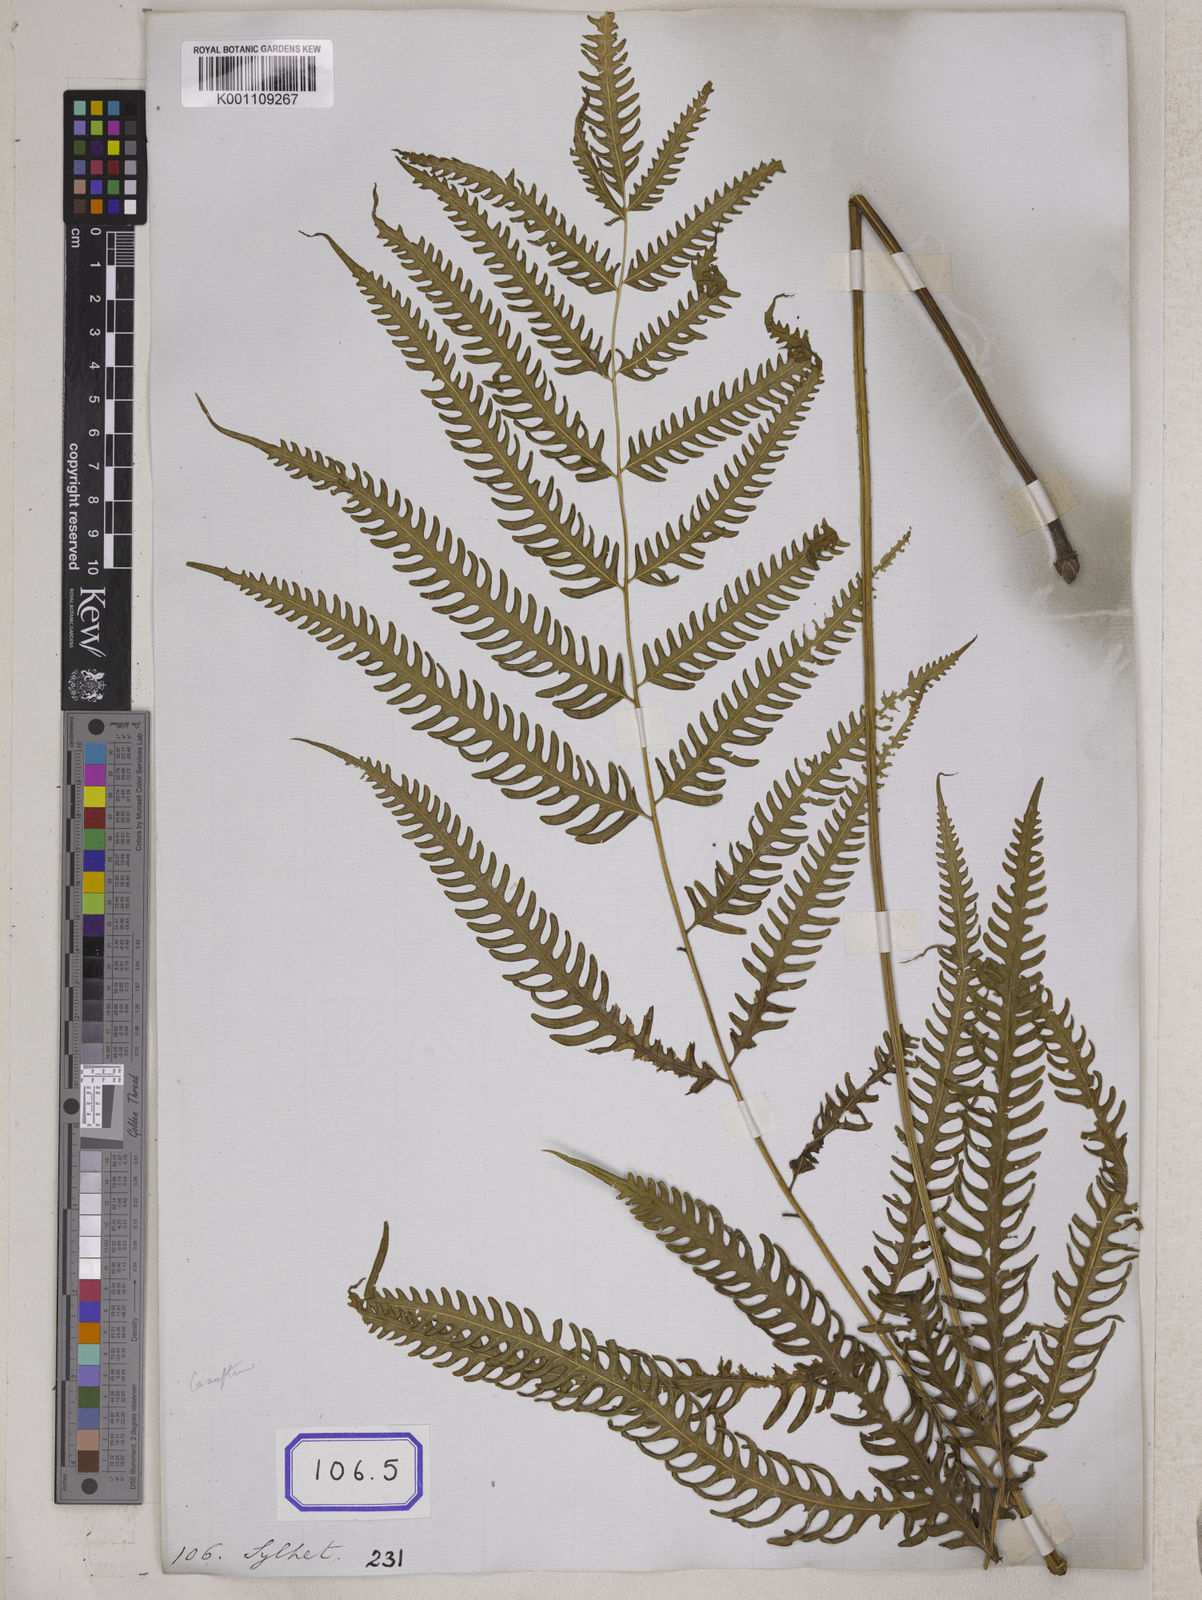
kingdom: Plantae
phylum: Tracheophyta
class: Polypodiopsida
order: Polypodiales
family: Pteridaceae
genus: Pteris
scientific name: Pteris linearis
